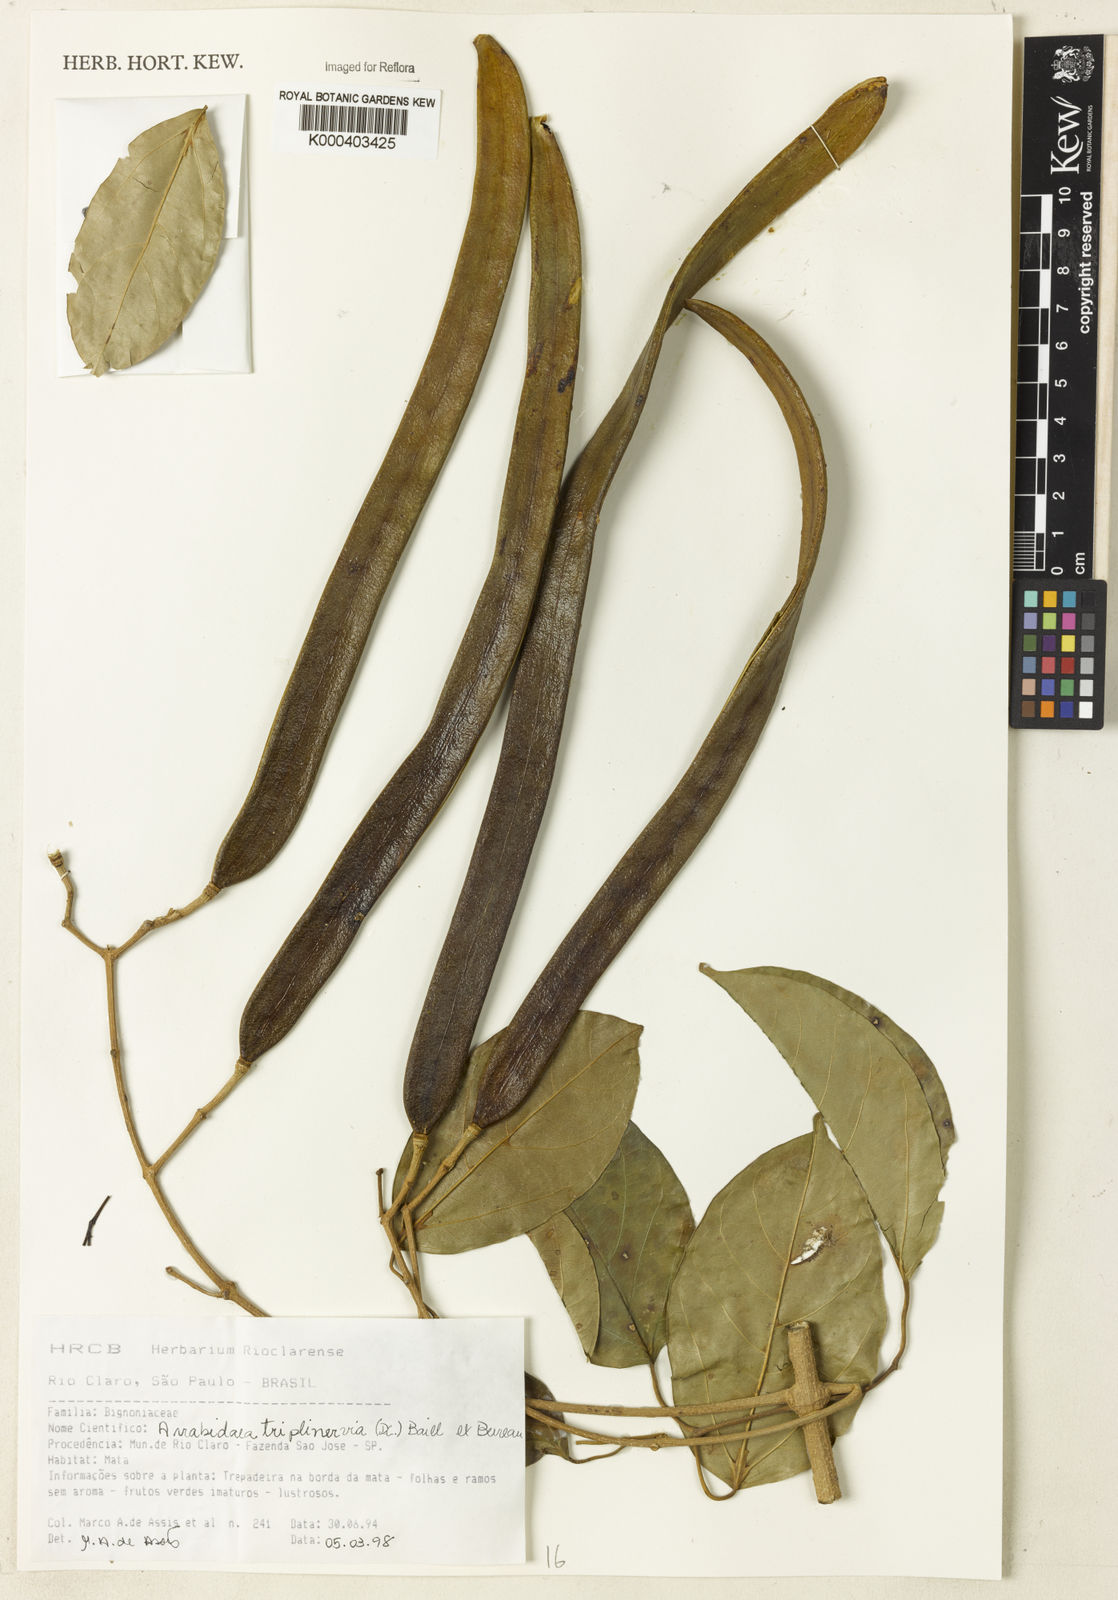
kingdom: Plantae
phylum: Tracheophyta
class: Magnoliopsida
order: Rosales
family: Rhamnaceae
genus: Arrabidaea
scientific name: Arrabidaea
